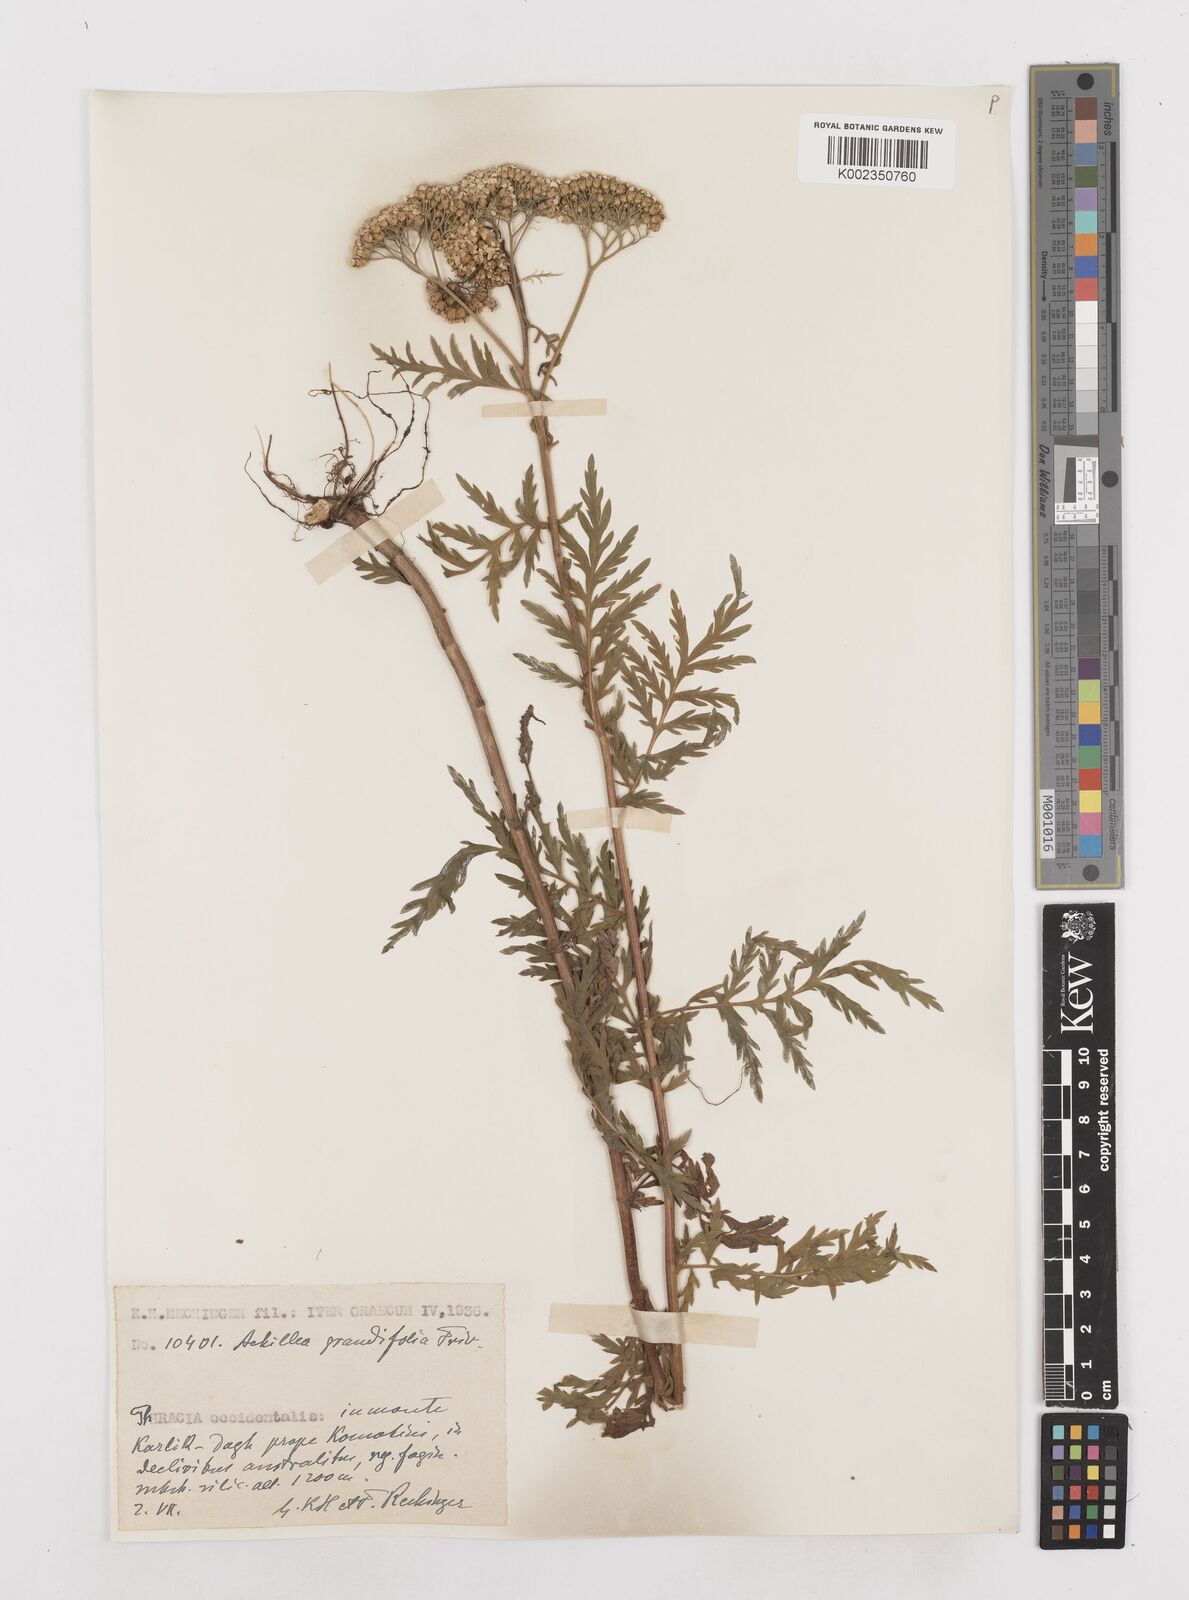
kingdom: Plantae
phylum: Tracheophyta
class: Magnoliopsida
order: Asterales
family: Asteraceae
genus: Achillea
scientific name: Achillea grandifolia
